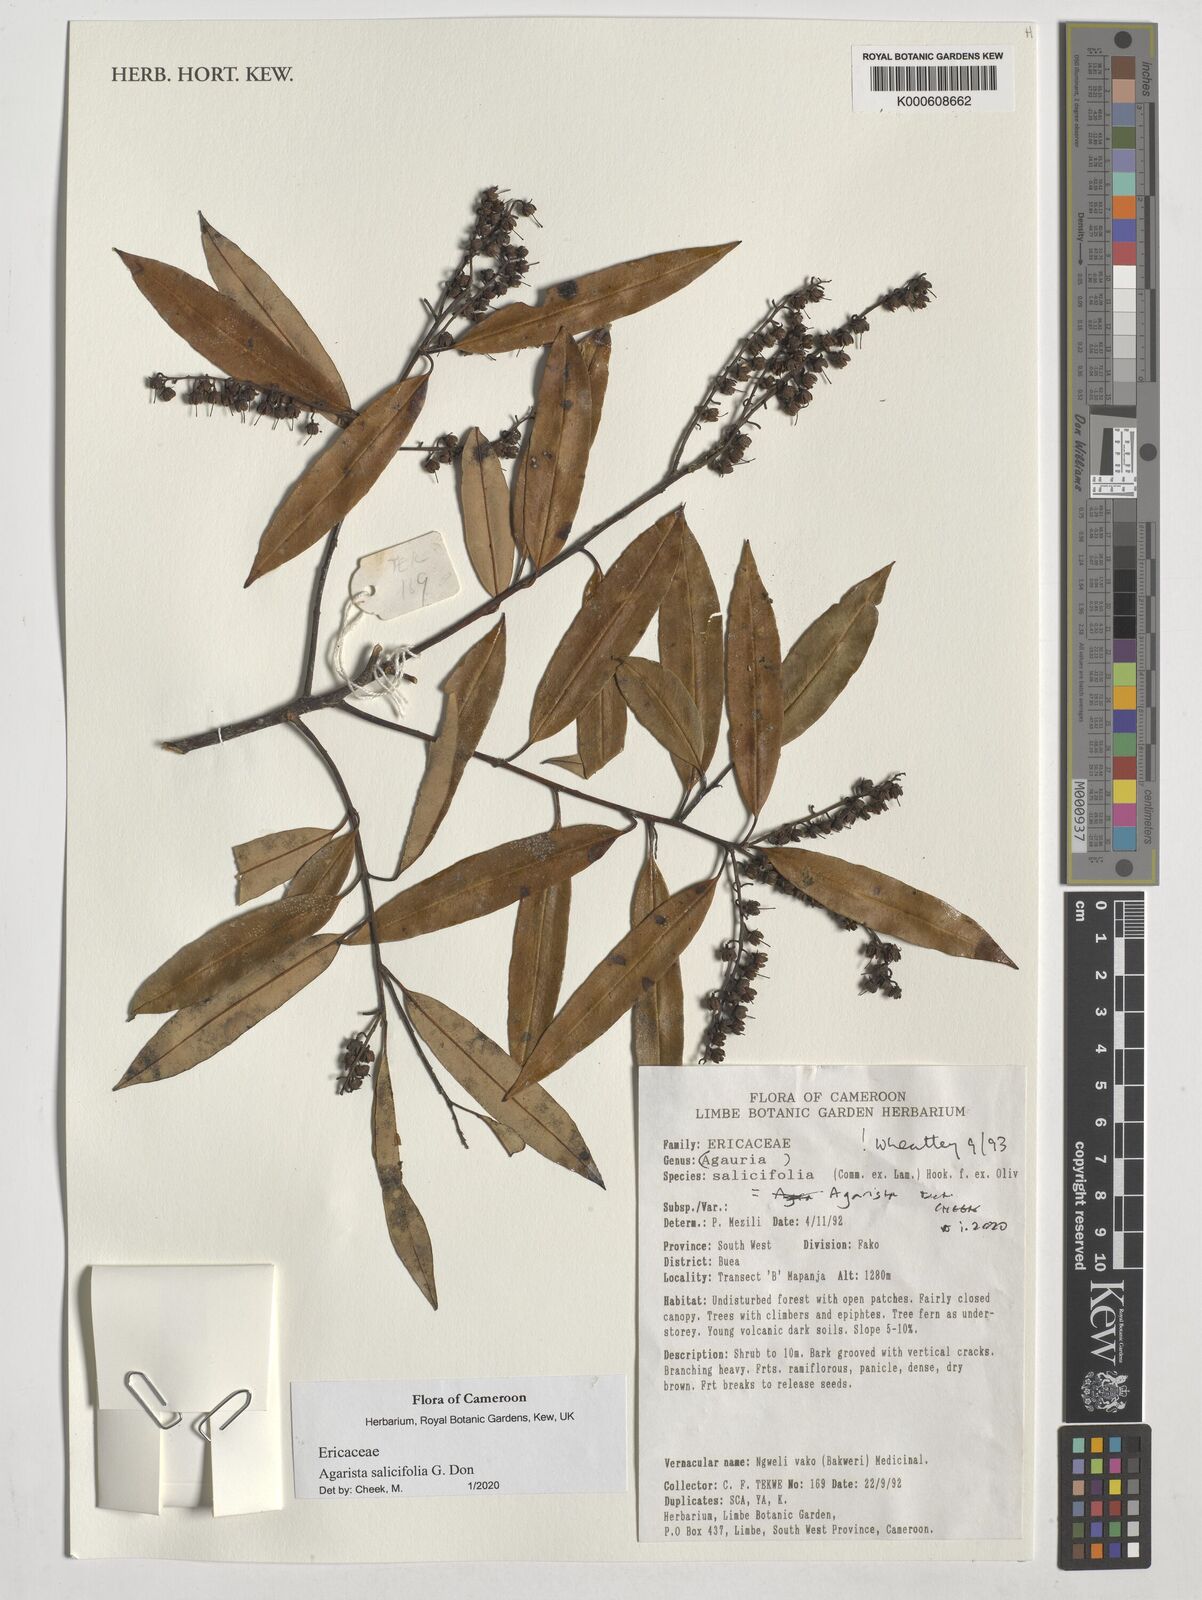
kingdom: Plantae
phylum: Tracheophyta
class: Magnoliopsida
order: Ericales
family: Ericaceae
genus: Agarista
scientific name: Agarista salicifolia
